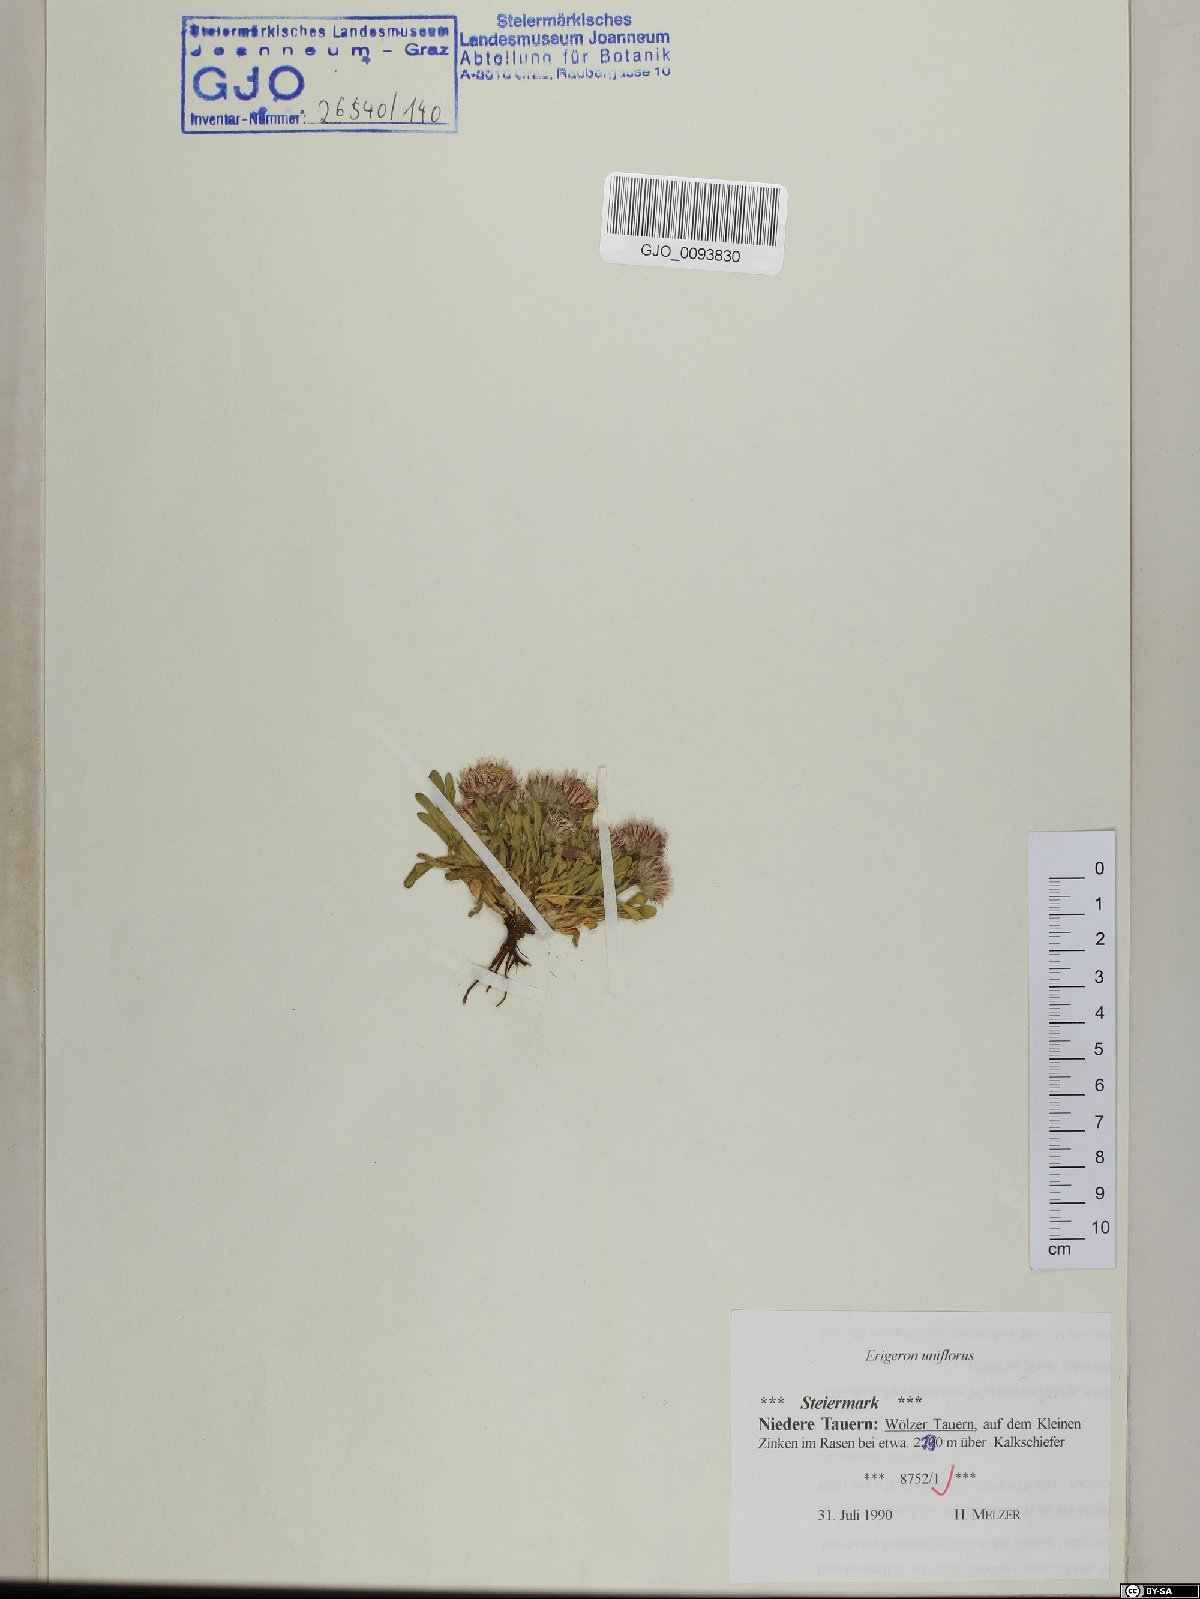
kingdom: Plantae
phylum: Tracheophyta
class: Magnoliopsida
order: Asterales
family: Asteraceae
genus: Erigeron
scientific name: Erigeron uniflorus
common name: Northern daisy
